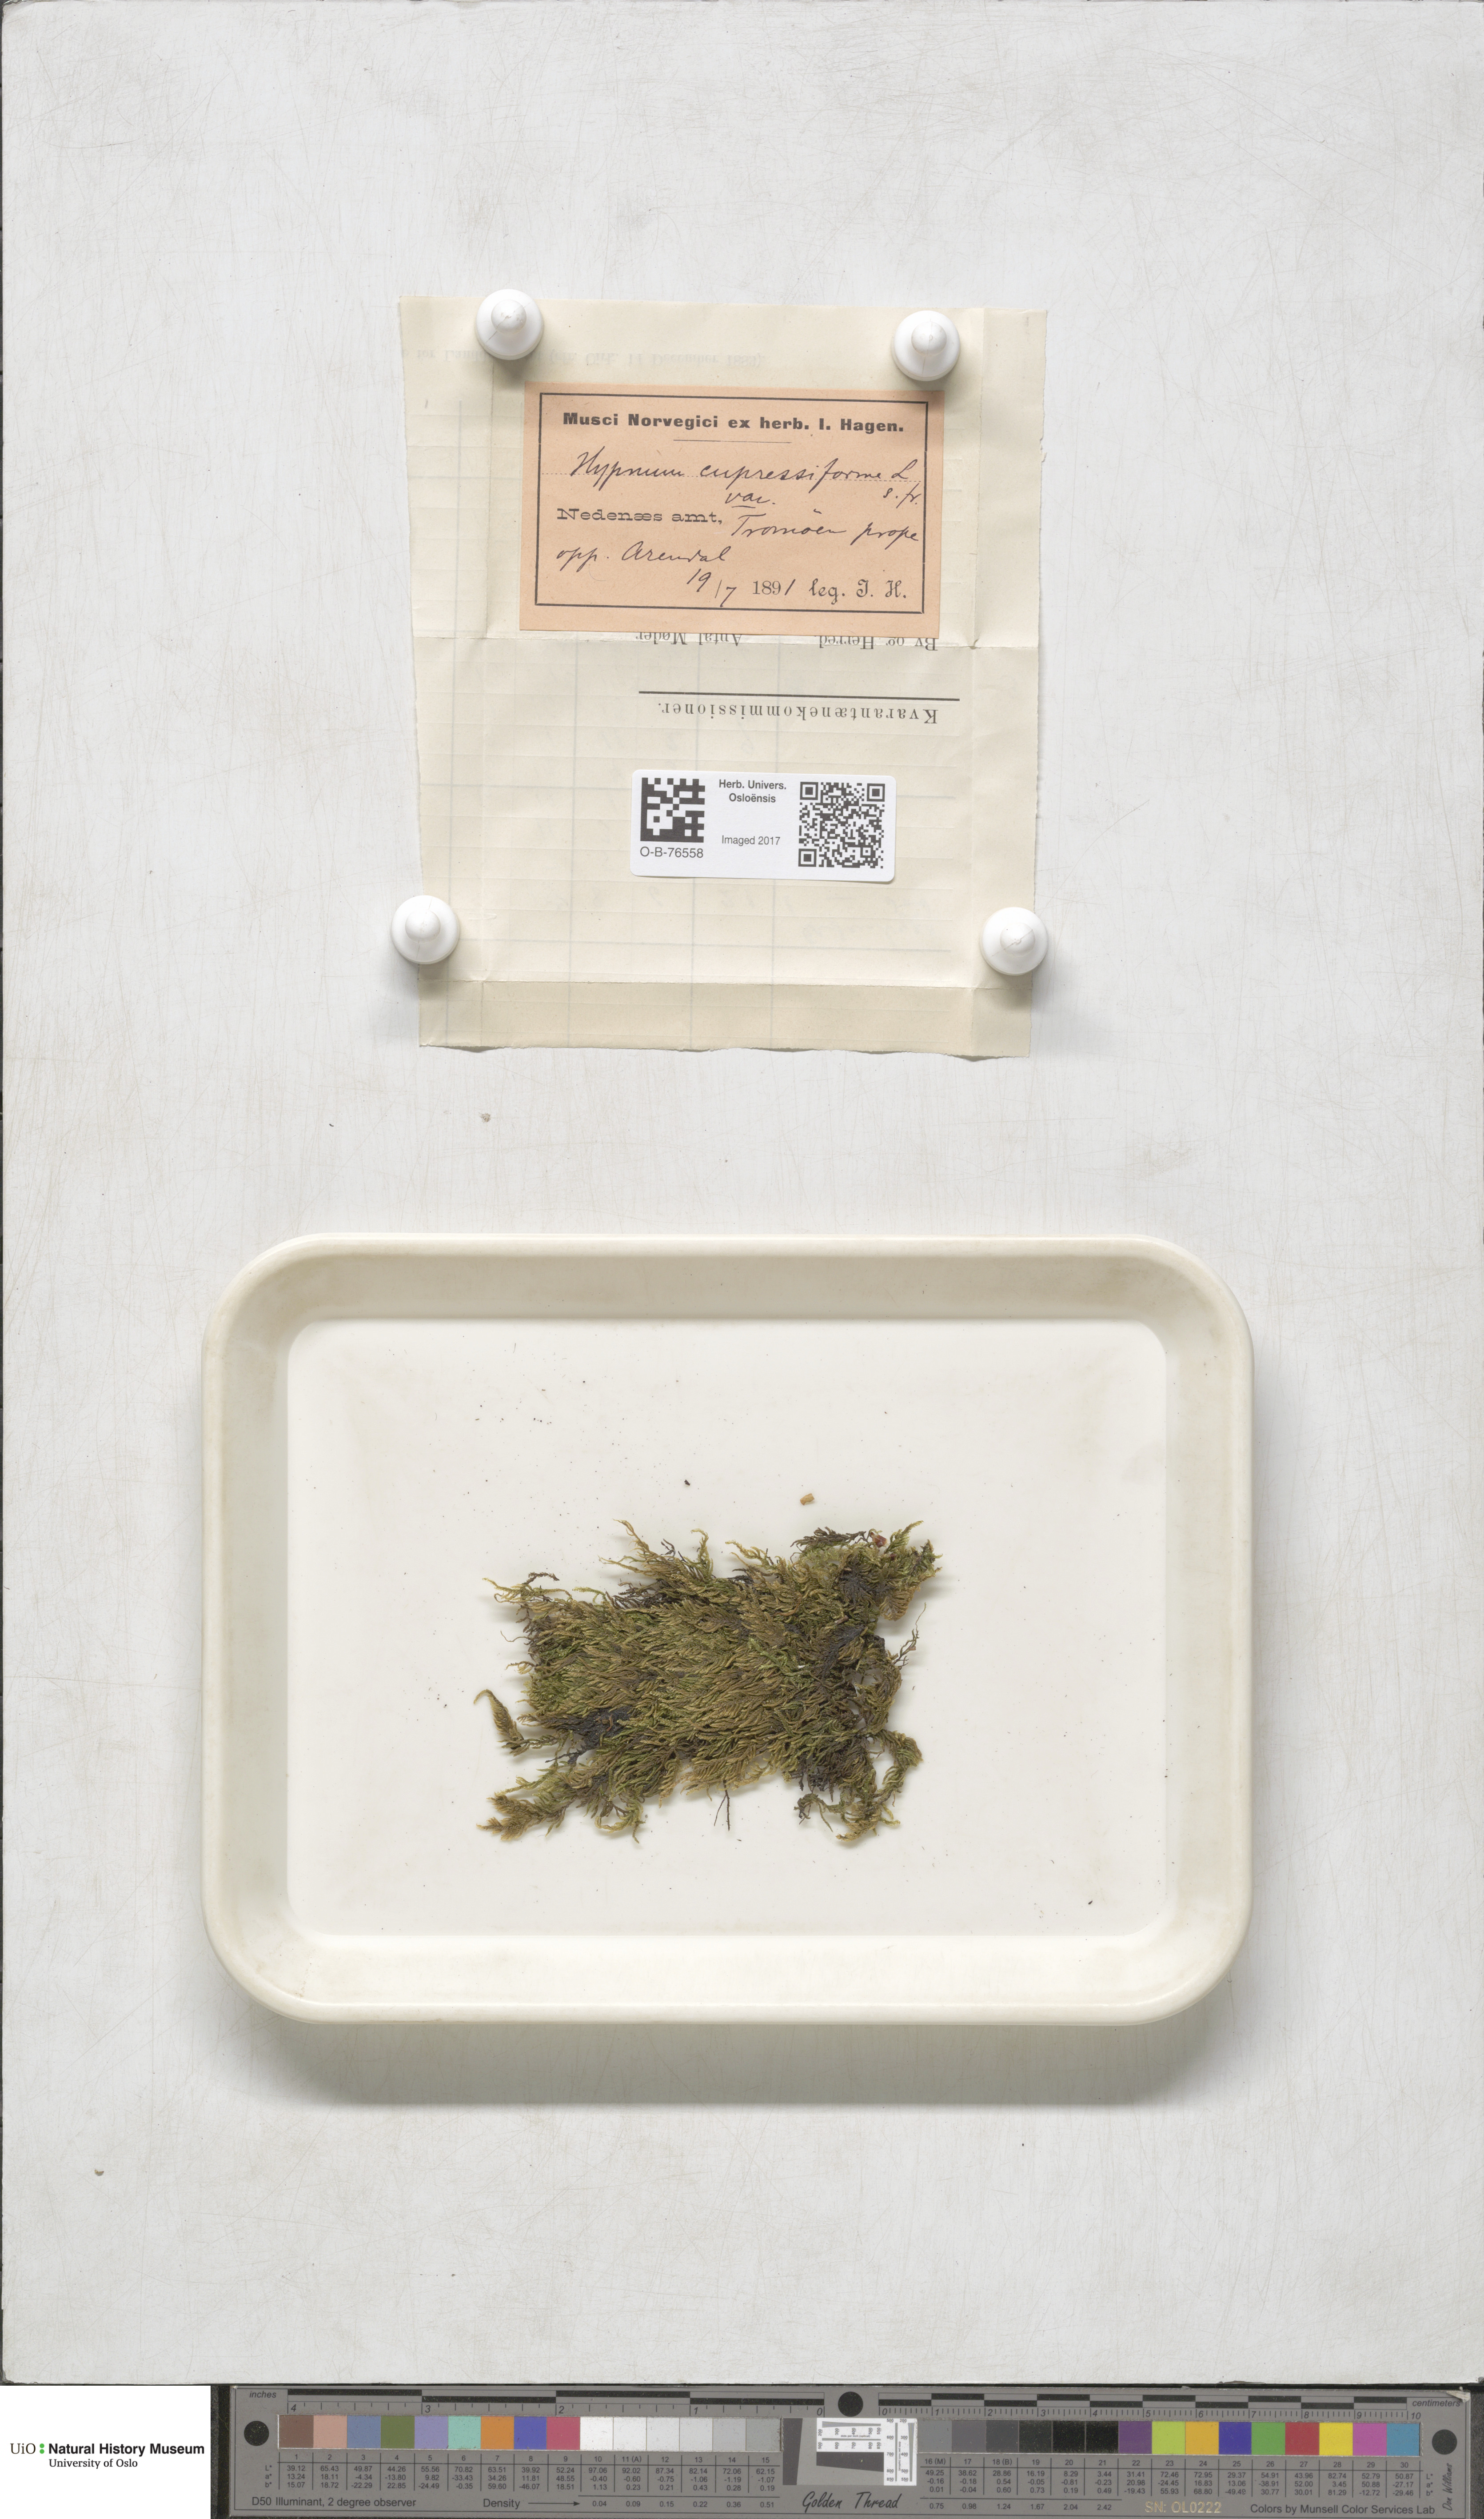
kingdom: Plantae
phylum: Bryophyta
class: Bryopsida
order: Hypnales
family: Hypnaceae
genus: Hypnum
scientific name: Hypnum cupressiforme
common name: Cypress-leaved plait-moss
